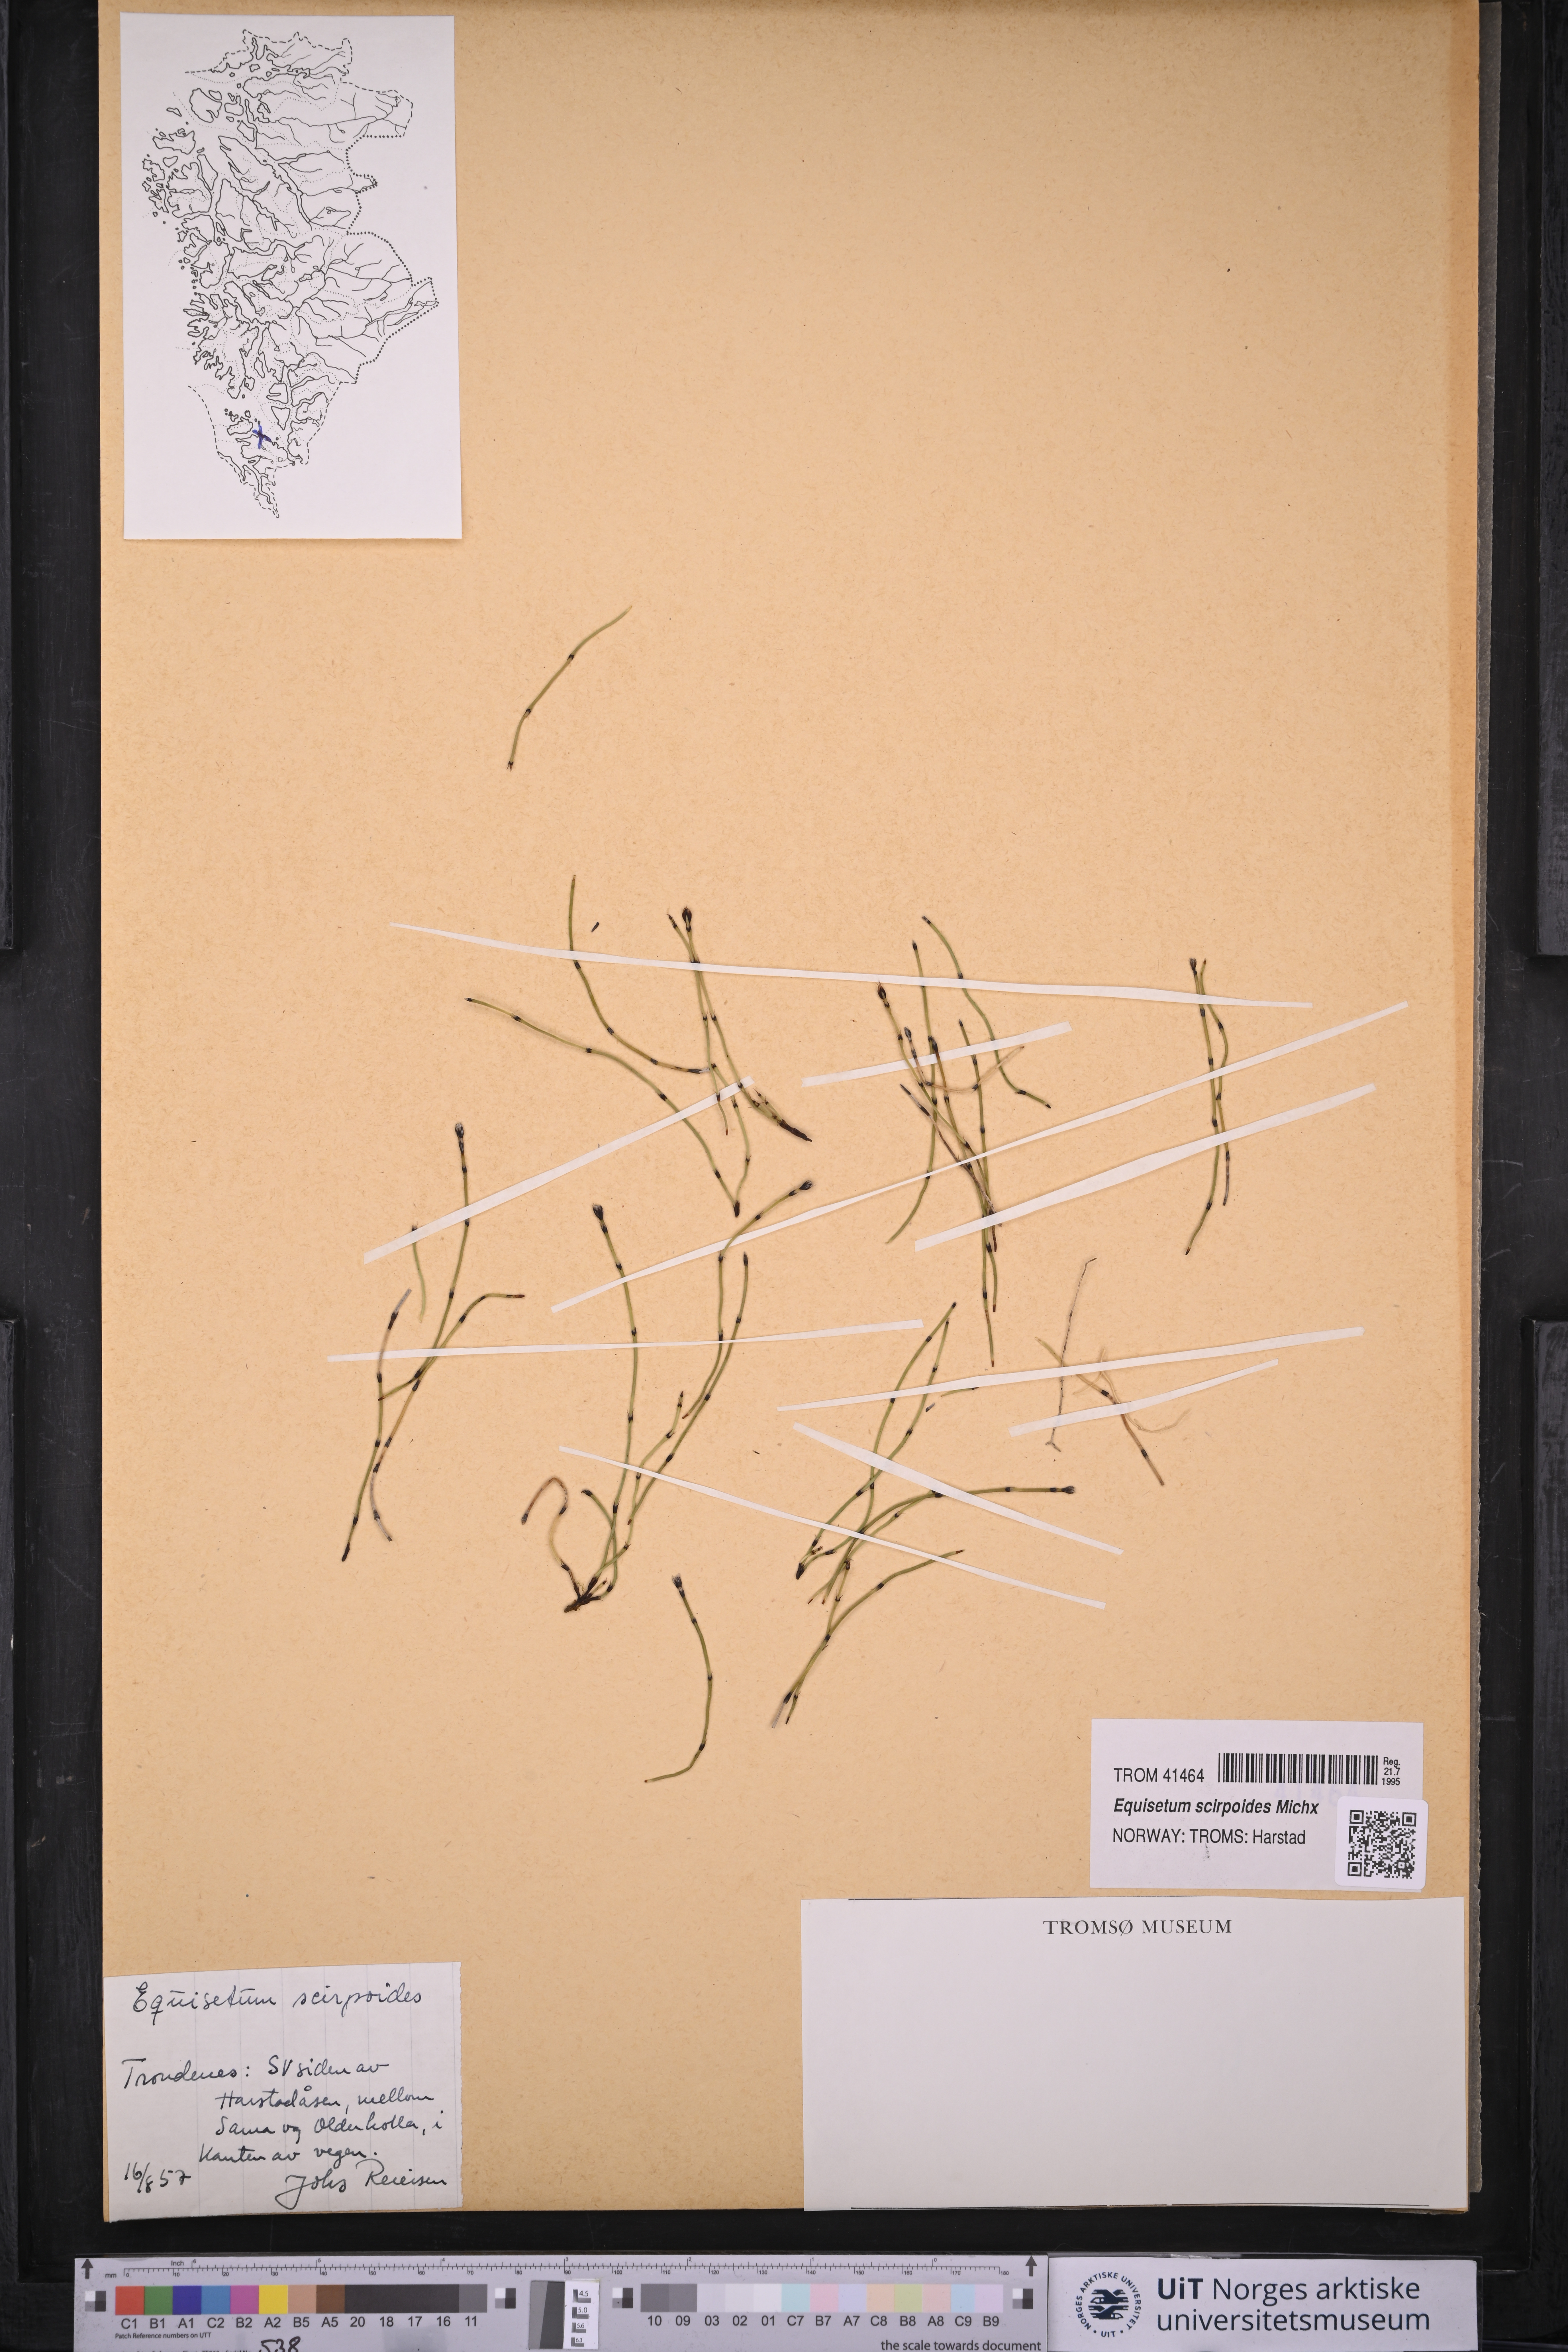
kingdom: Plantae
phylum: Tracheophyta
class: Polypodiopsida
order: Equisetales
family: Equisetaceae
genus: Equisetum
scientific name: Equisetum scirpoides
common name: Delicate horsetail
